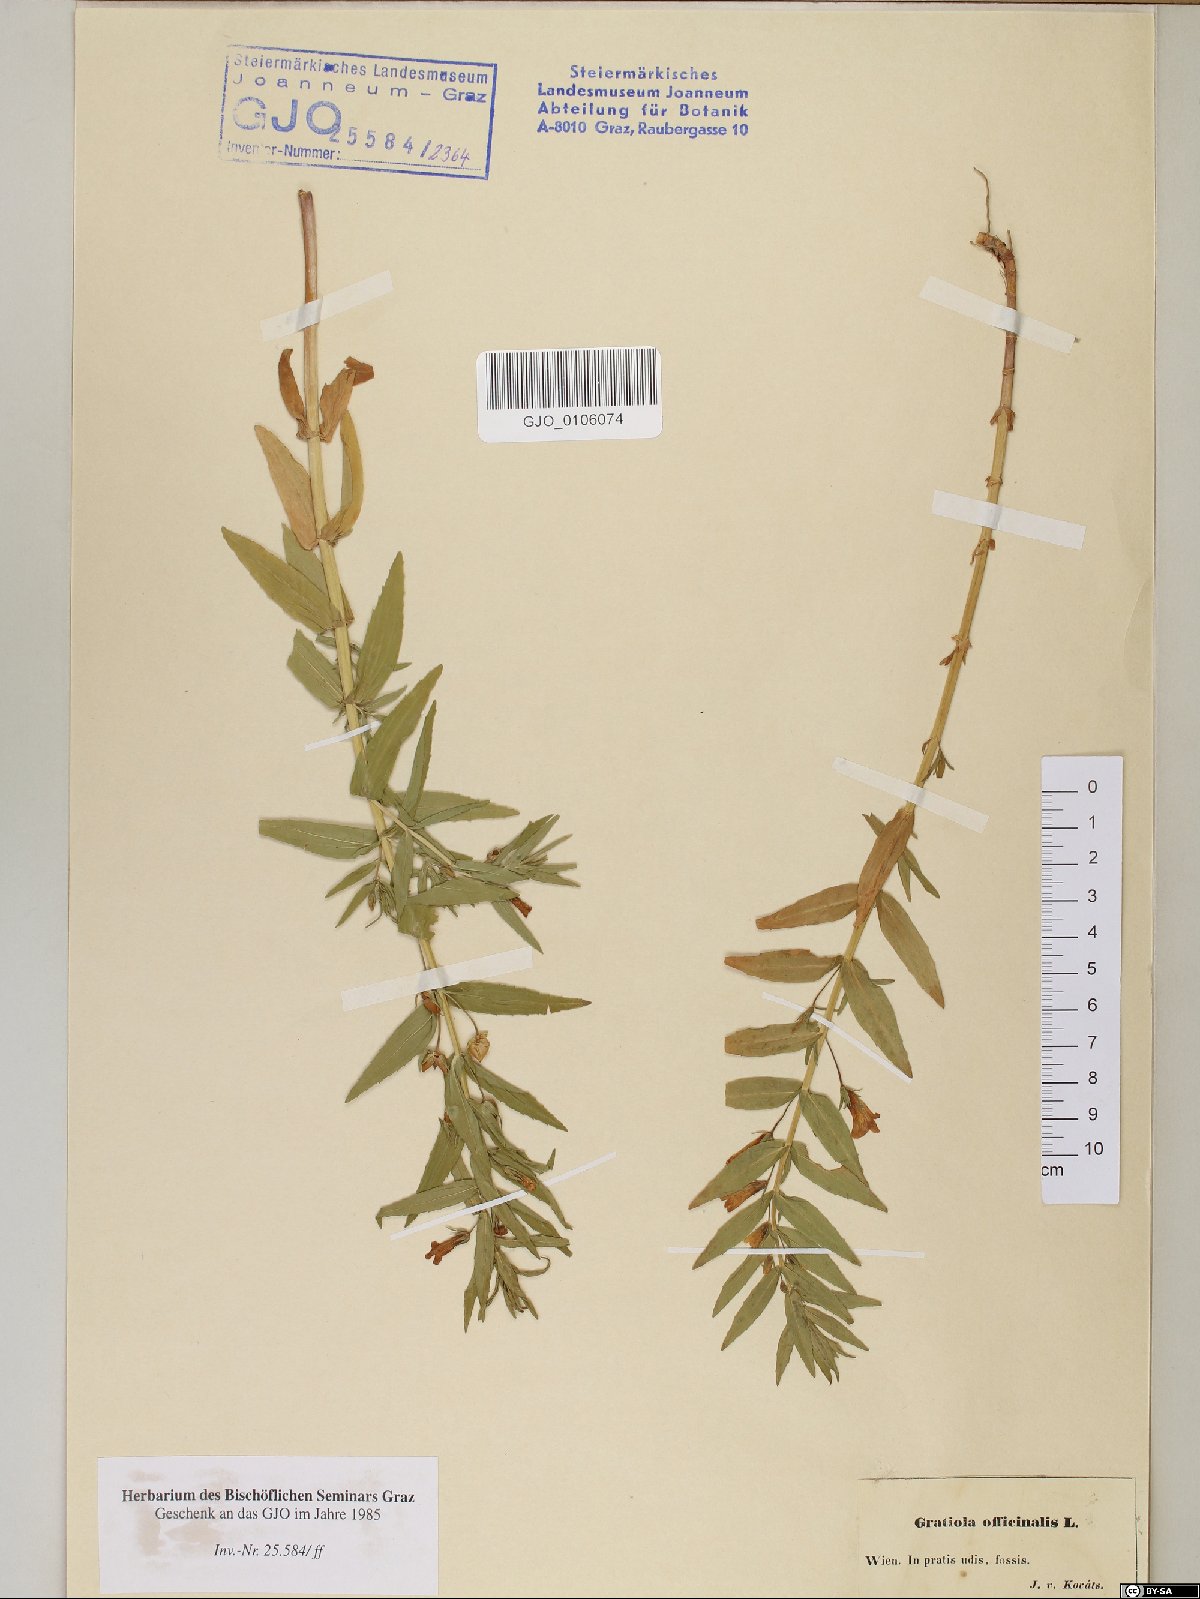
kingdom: Plantae
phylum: Tracheophyta
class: Magnoliopsida
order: Lamiales
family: Plantaginaceae
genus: Gratiola
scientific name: Gratiola officinalis
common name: Gratiola
